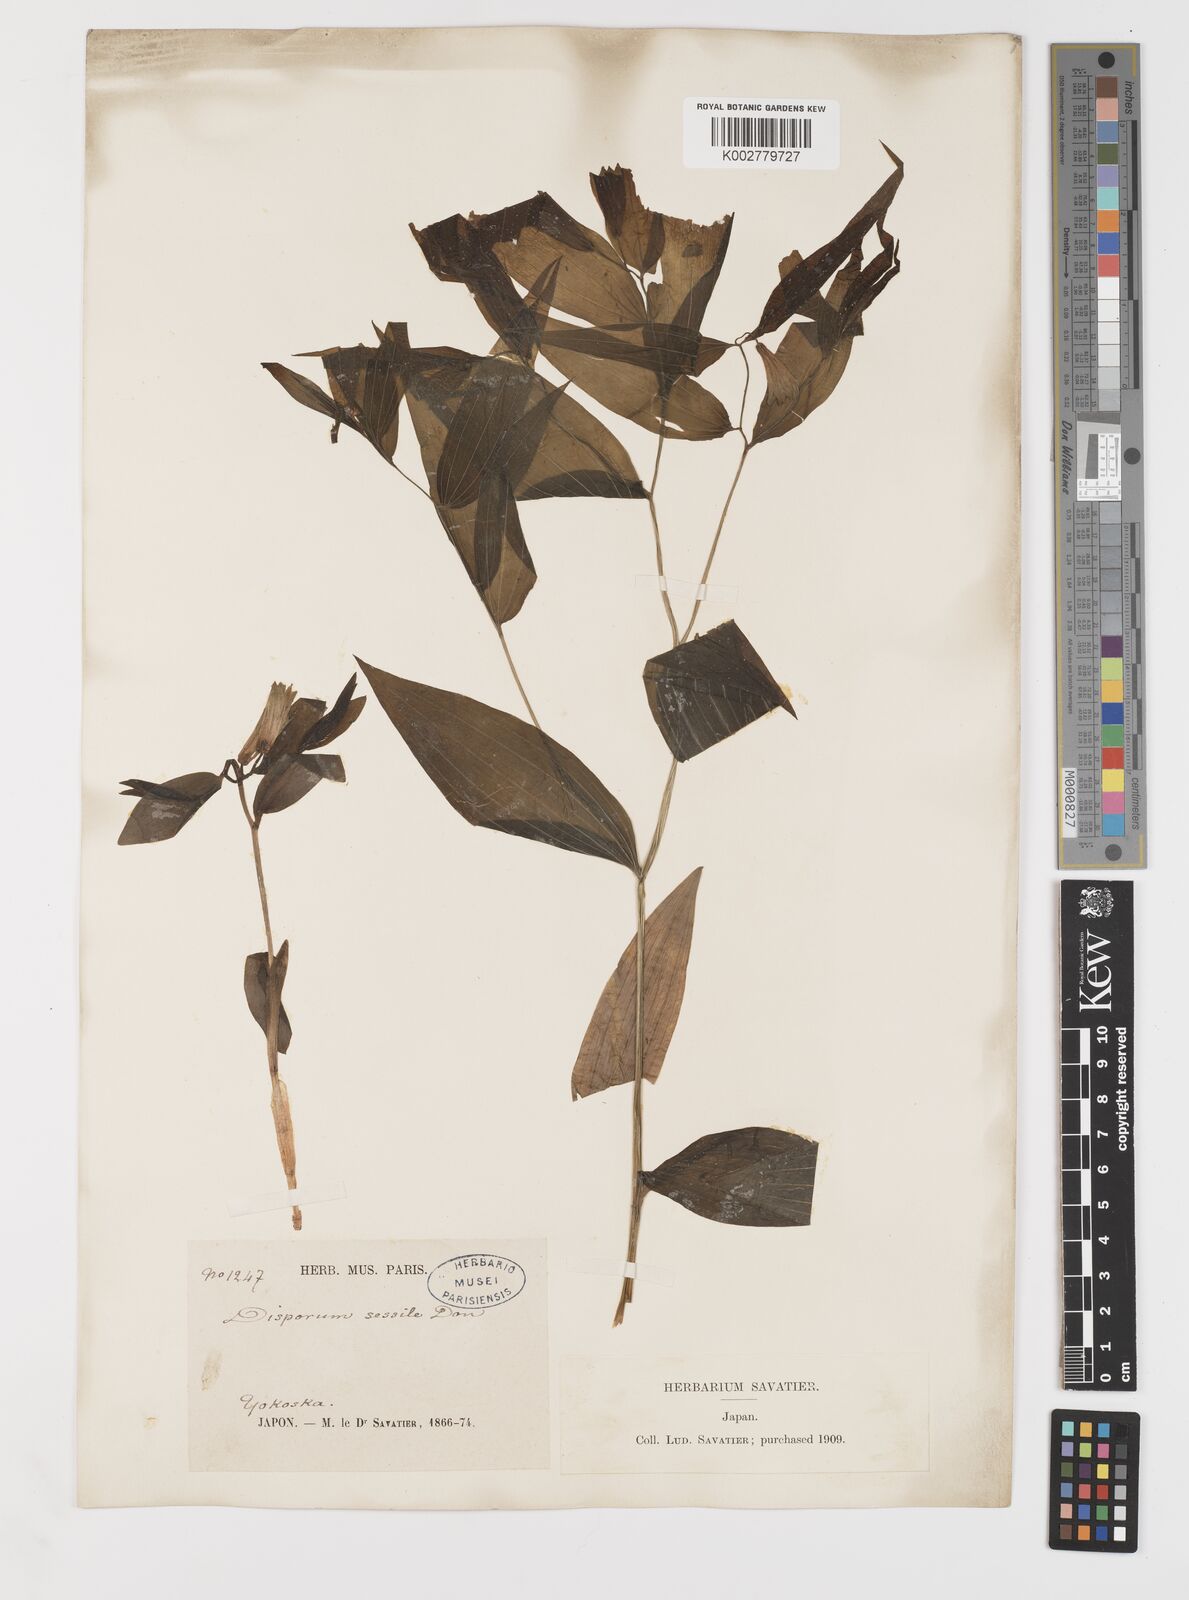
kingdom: Plantae
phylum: Tracheophyta
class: Liliopsida
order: Liliales
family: Colchicaceae
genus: Disporum
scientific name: Disporum sessile
